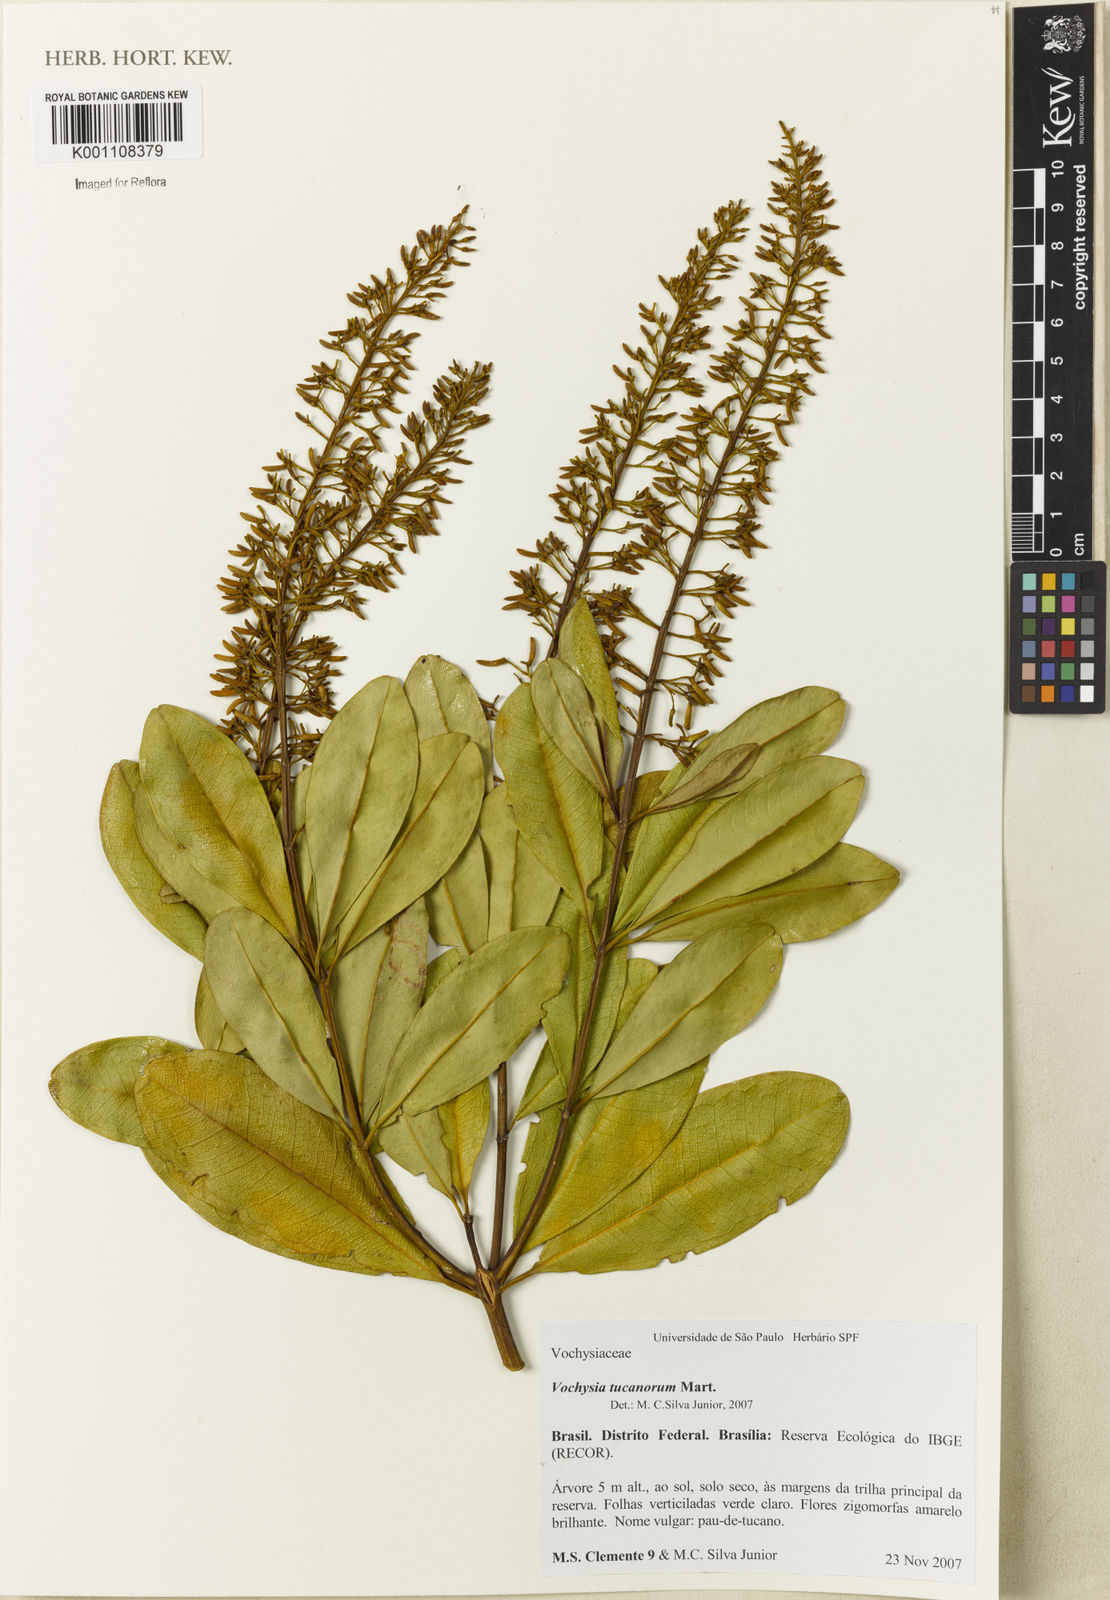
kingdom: Plantae
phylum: Tracheophyta
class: Magnoliopsida
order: Myrtales
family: Vochysiaceae
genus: Vochysia
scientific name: Vochysia tucanorum
